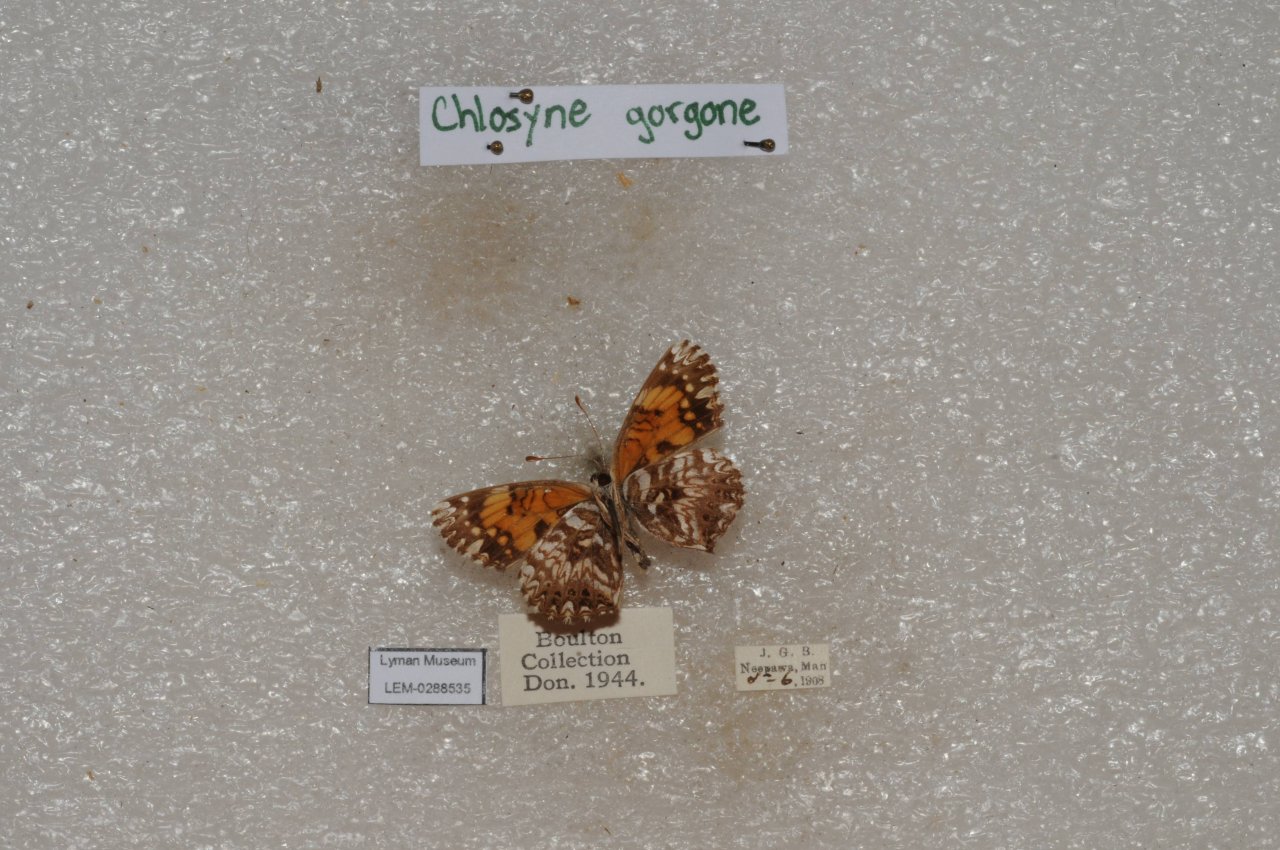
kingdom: Animalia
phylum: Arthropoda
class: Insecta
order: Lepidoptera
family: Nymphalidae
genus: Chlosyne
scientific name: Chlosyne gorgone
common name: Gorgone Checkerspot
